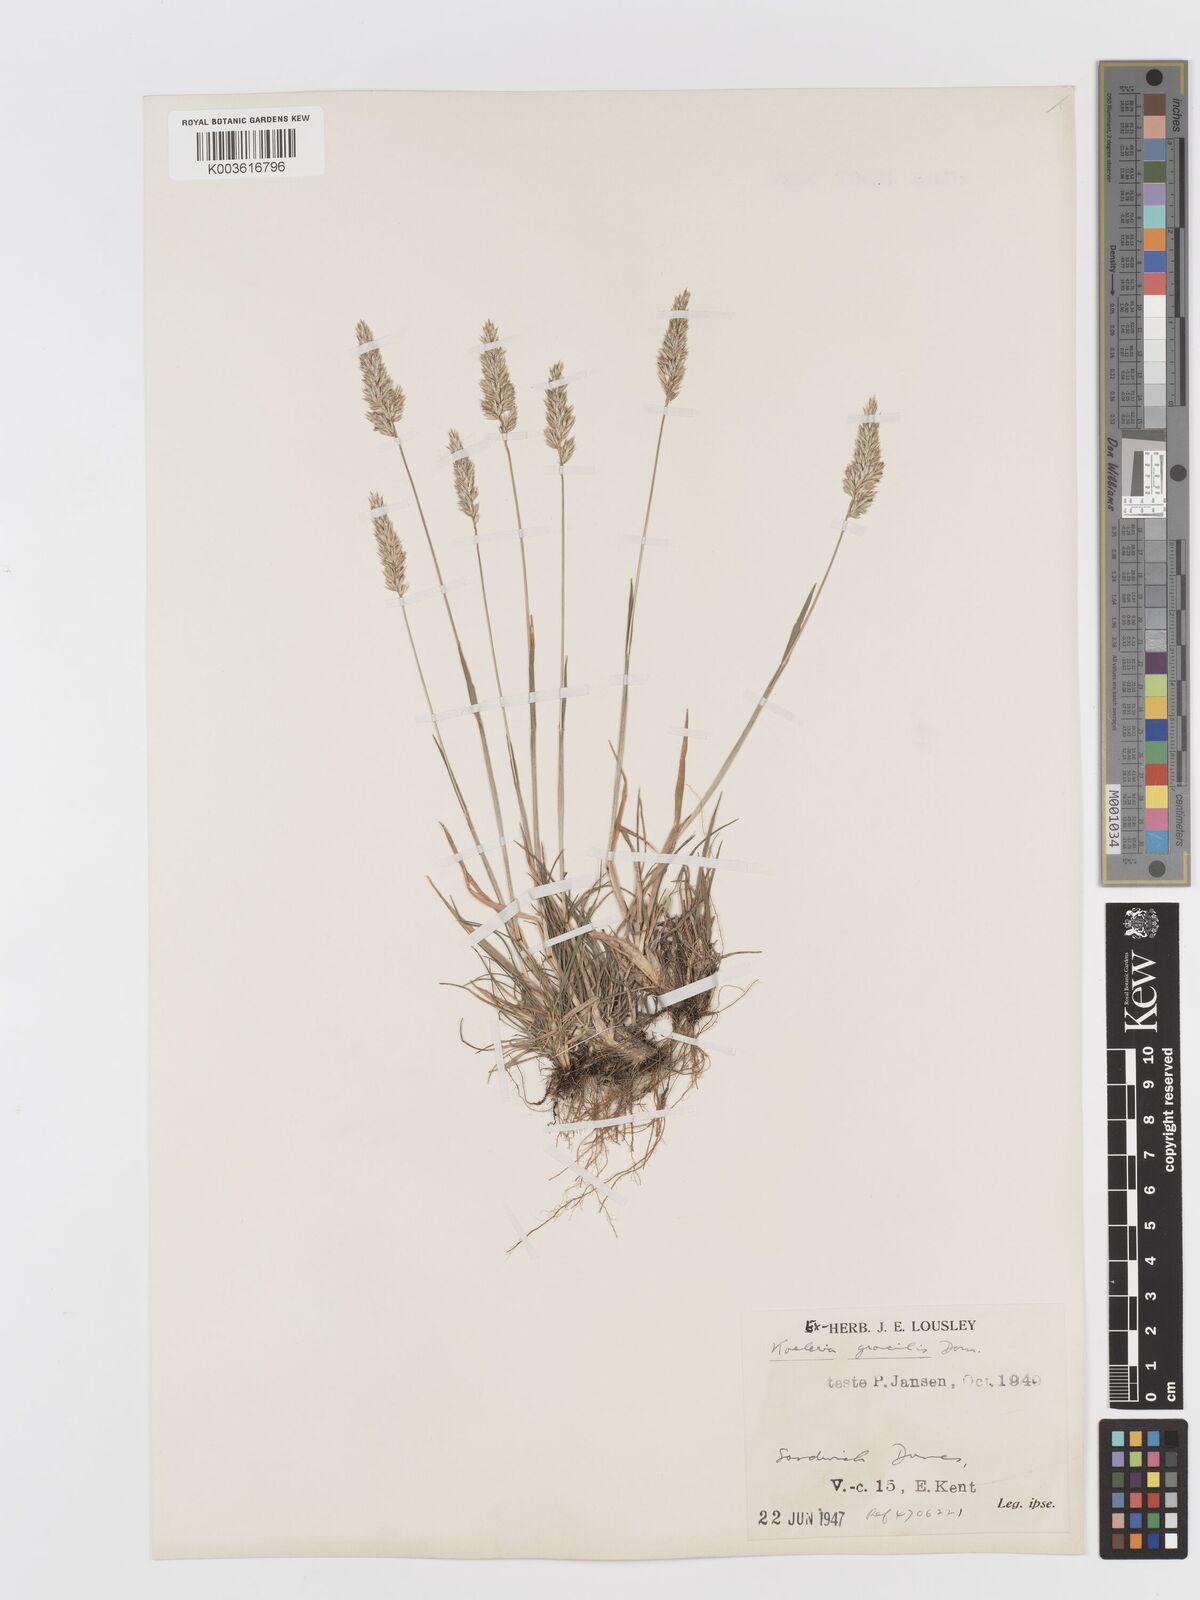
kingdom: Plantae
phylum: Tracheophyta
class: Liliopsida
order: Poales
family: Poaceae
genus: Koeleria
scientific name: Koeleria macrantha
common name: Crested hair-grass
